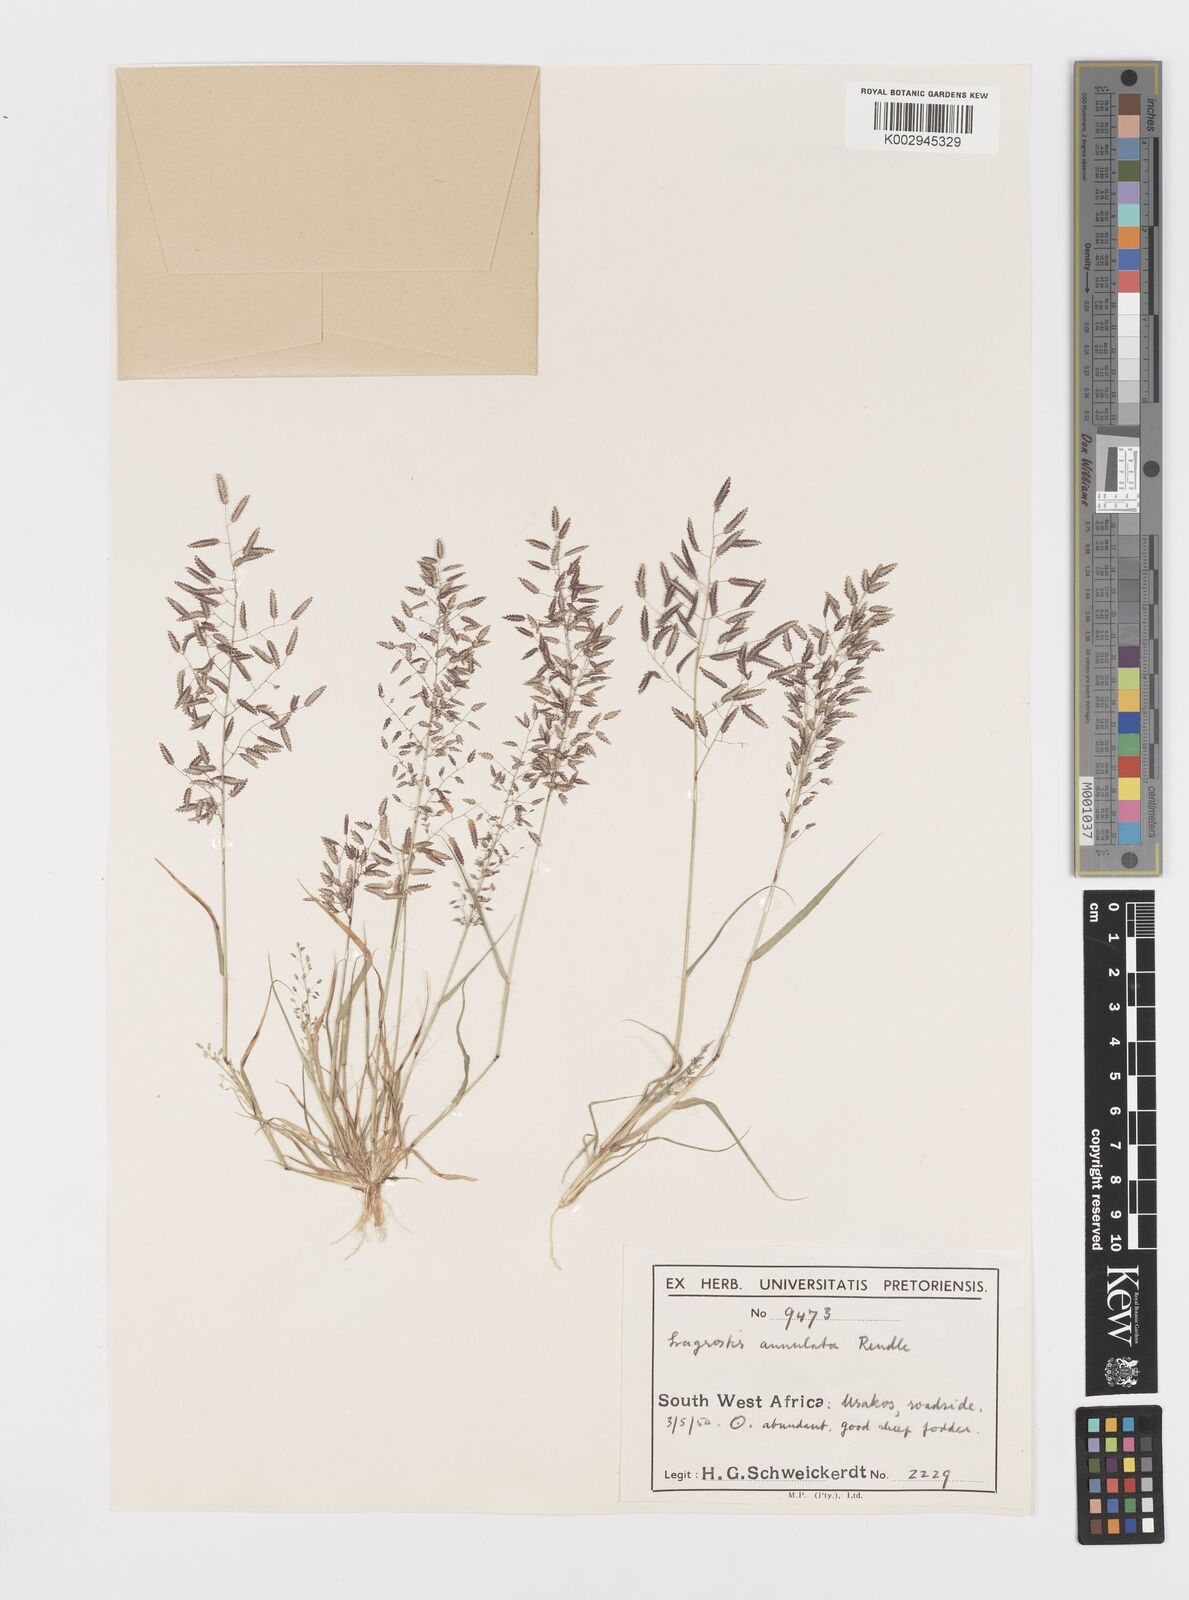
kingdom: Plantae
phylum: Tracheophyta
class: Liliopsida
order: Poales
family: Poaceae
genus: Eragrostis
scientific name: Eragrostis annulata
